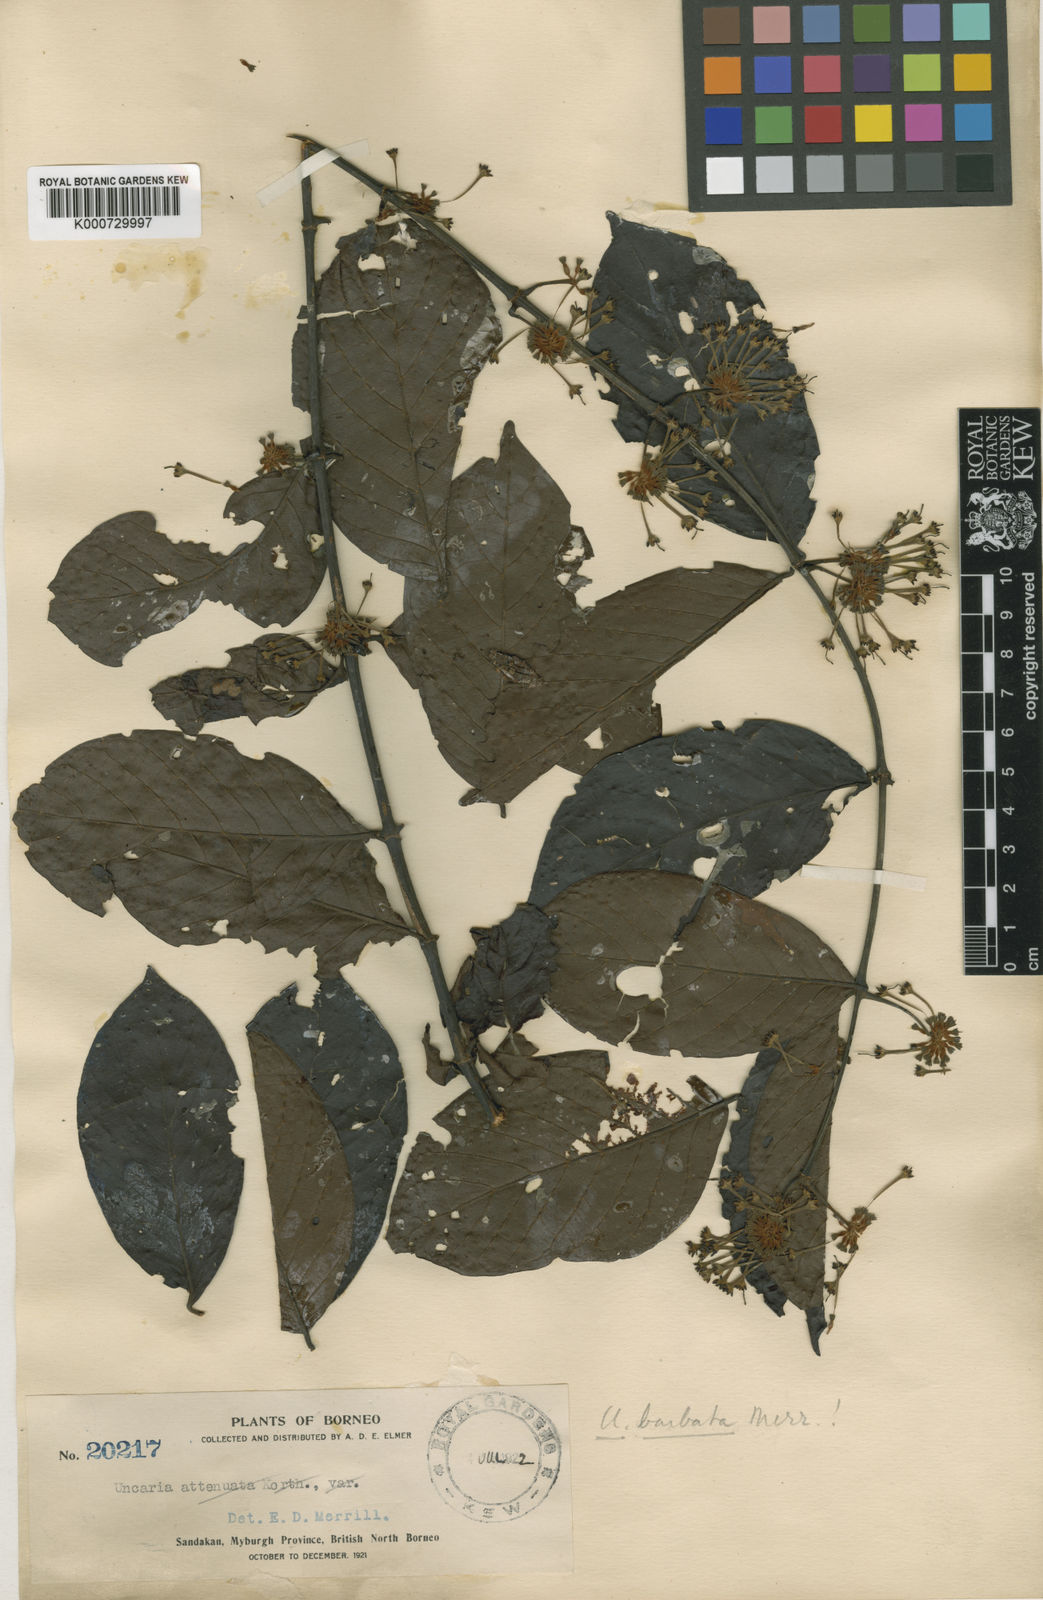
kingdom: Plantae
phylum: Tracheophyta
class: Magnoliopsida
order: Gentianales
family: Rubiaceae
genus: Uncaria
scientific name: Uncaria barbata
